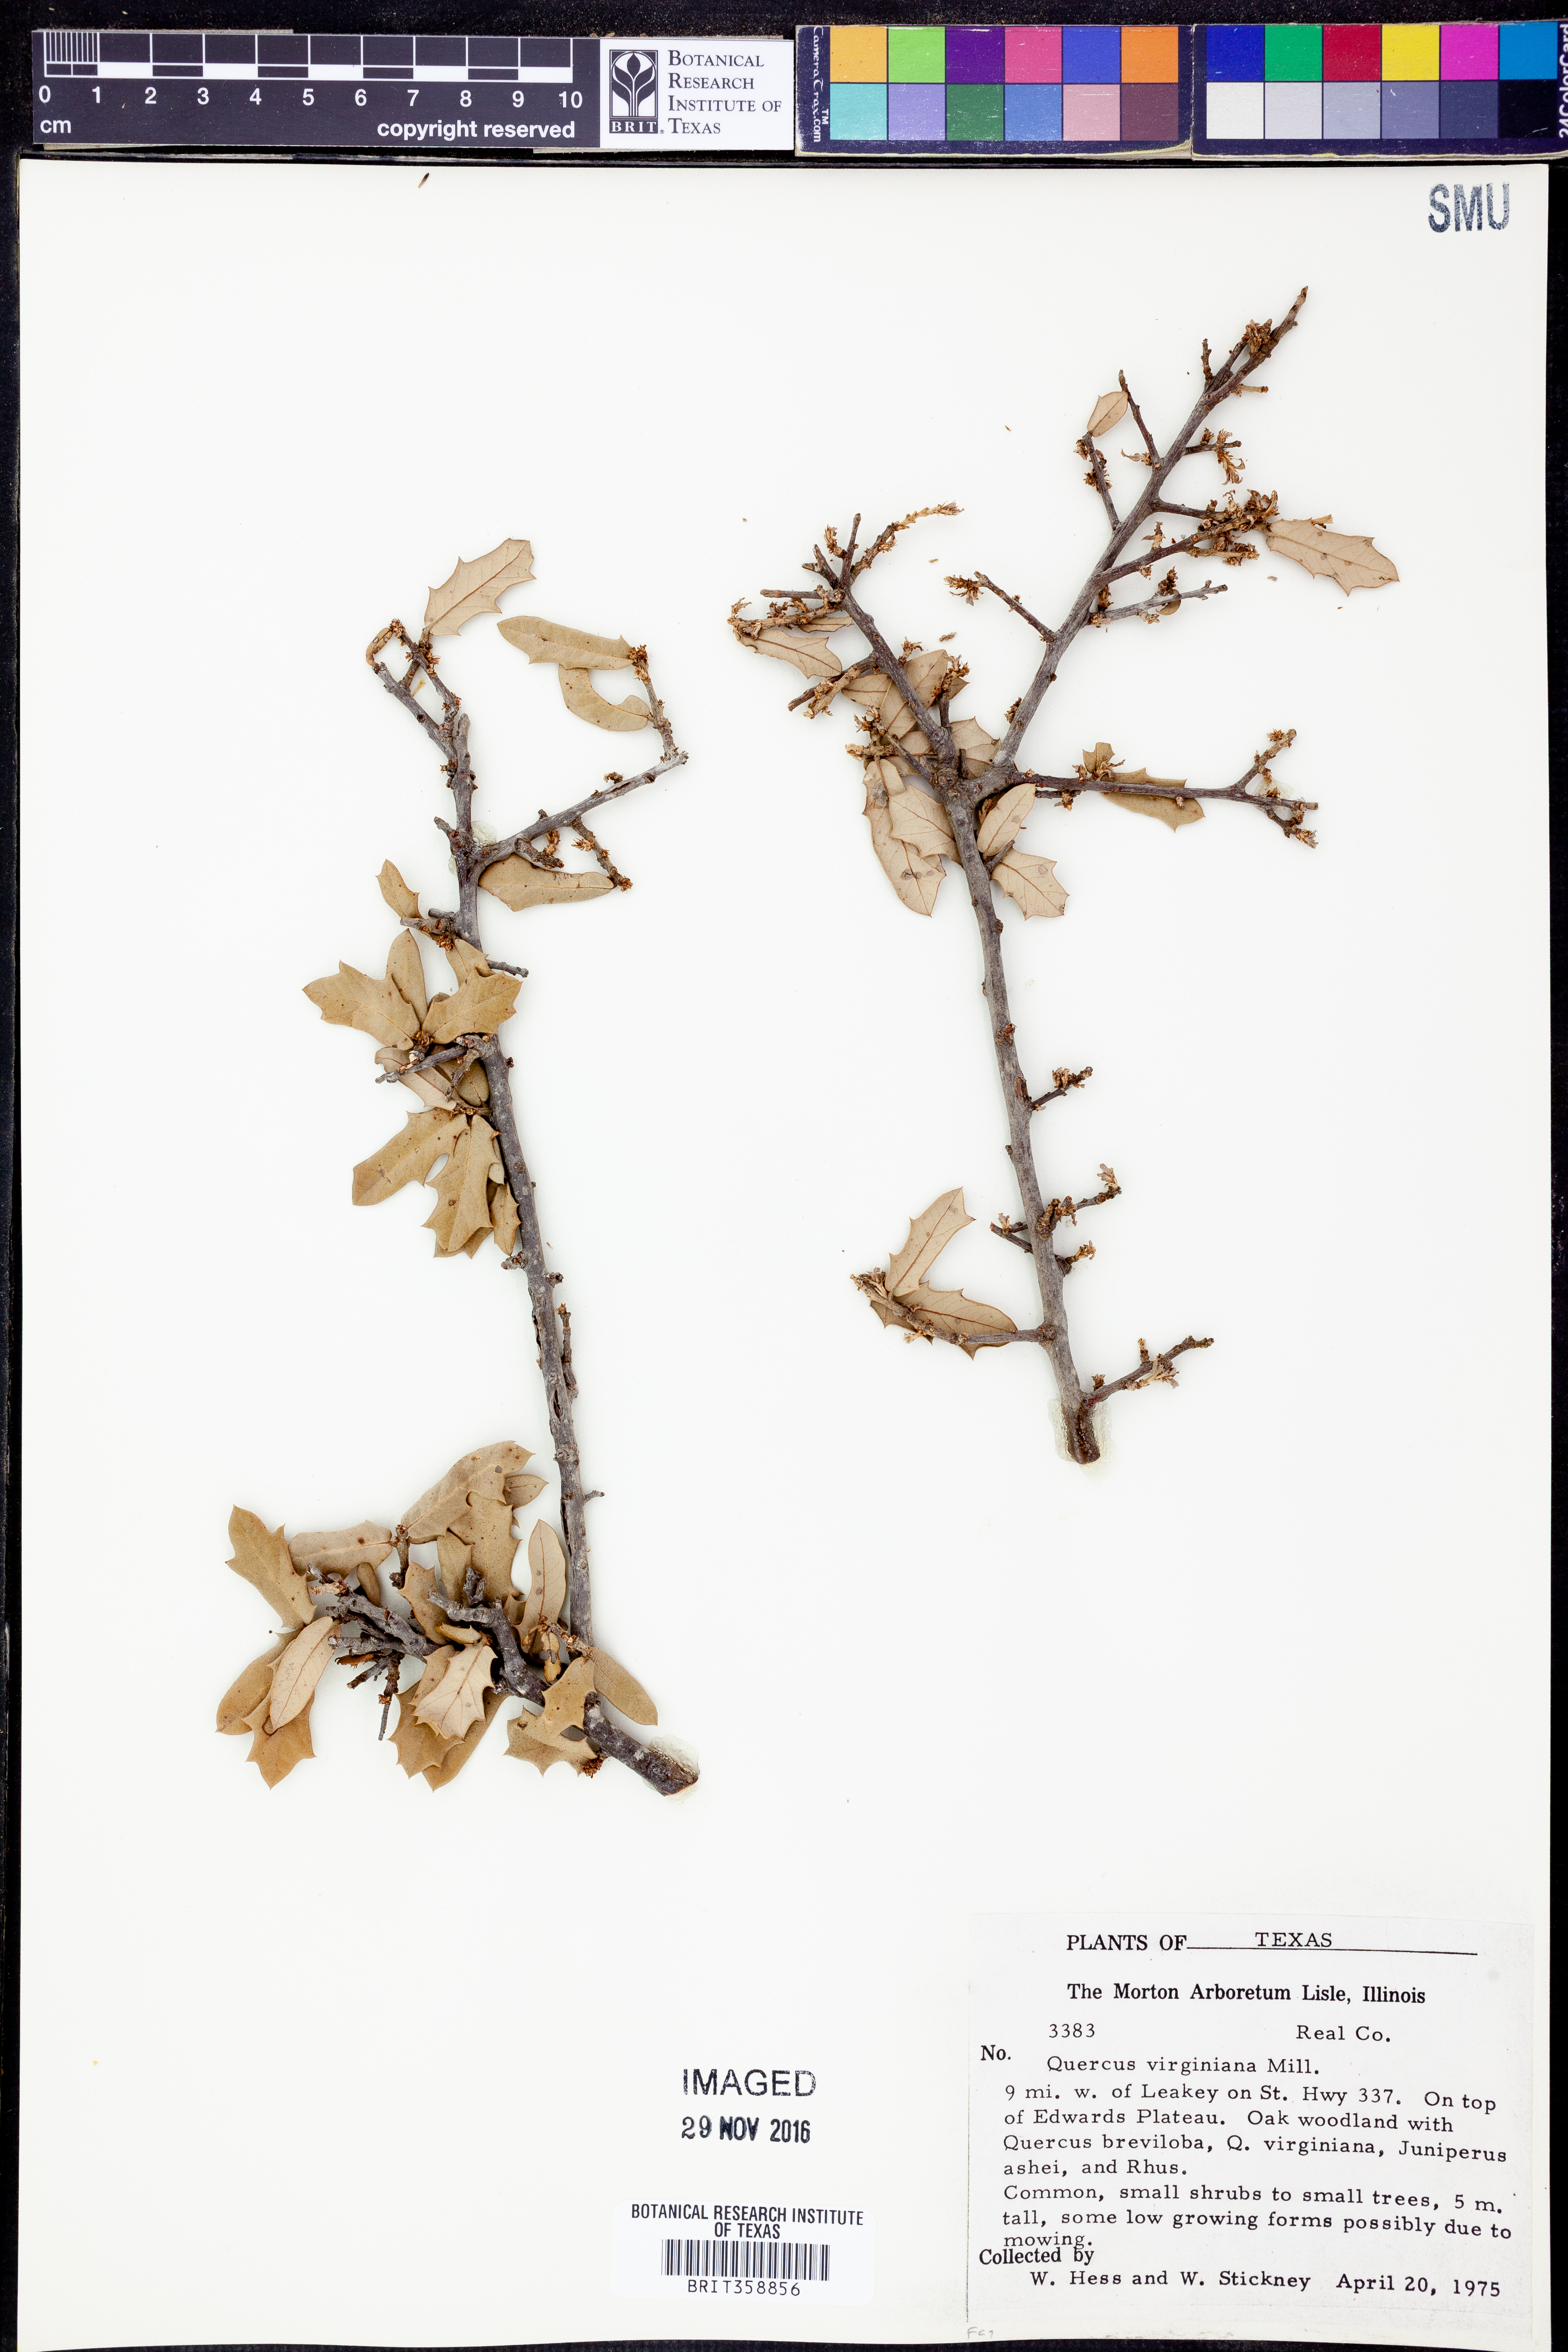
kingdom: Plantae
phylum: Tracheophyta
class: Magnoliopsida
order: Fagales
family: Fagaceae
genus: Quercus
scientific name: Quercus virginiana
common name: Southern live oak
